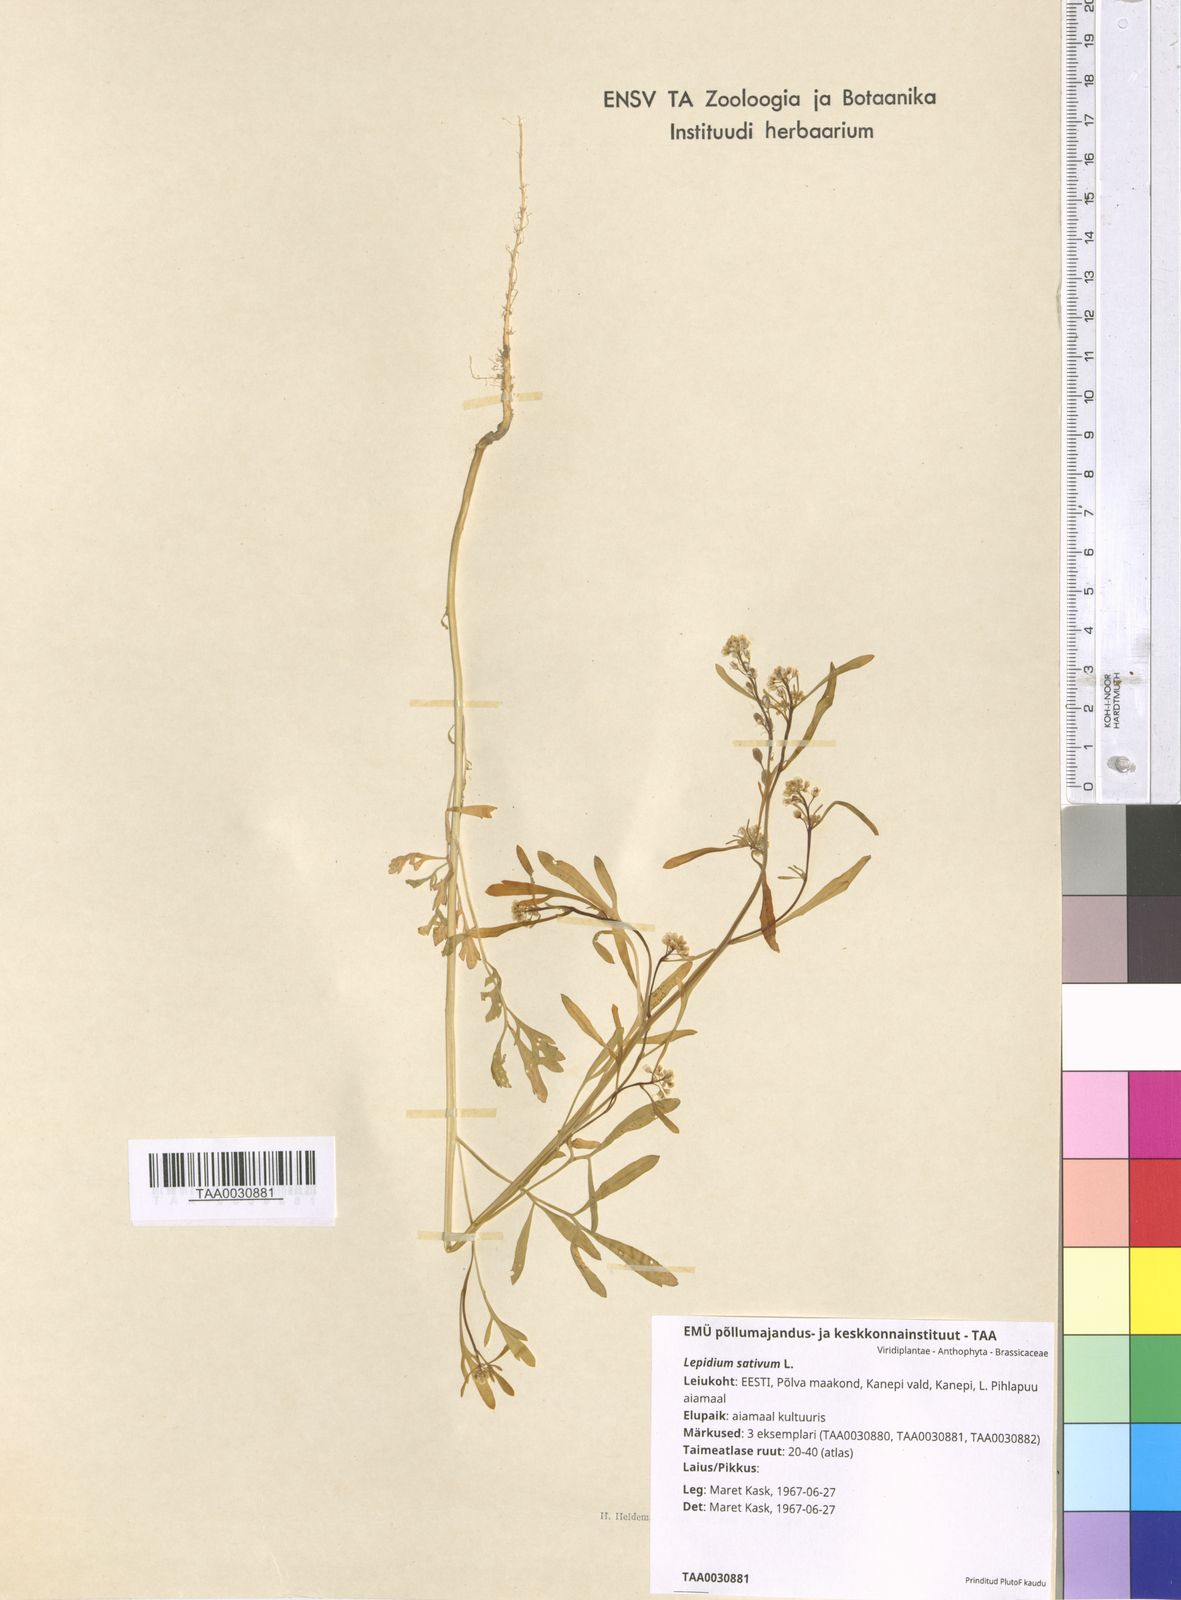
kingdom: Plantae
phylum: Tracheophyta
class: Magnoliopsida
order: Brassicales
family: Brassicaceae
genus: Lepidium
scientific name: Lepidium sativum
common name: Garden cress
